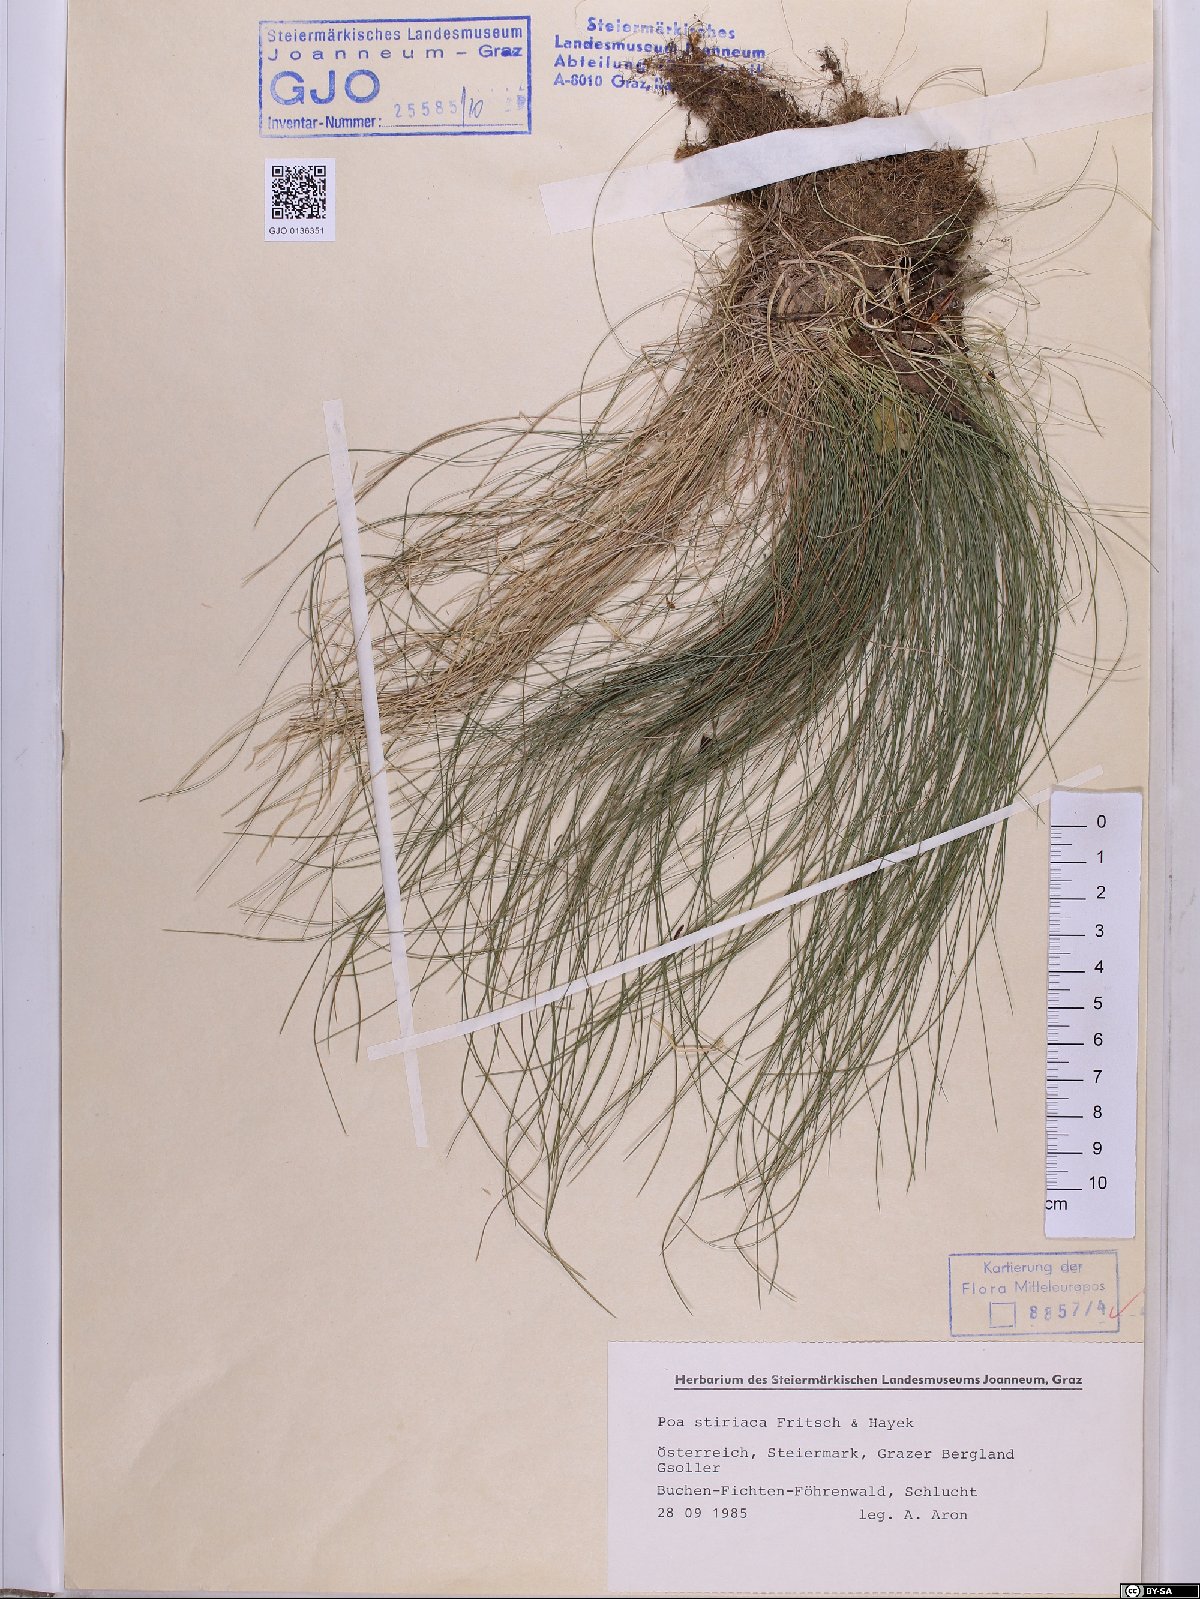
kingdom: Plantae
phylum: Tracheophyta
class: Liliopsida
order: Poales
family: Poaceae
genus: Poa
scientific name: Poa stiriaca
